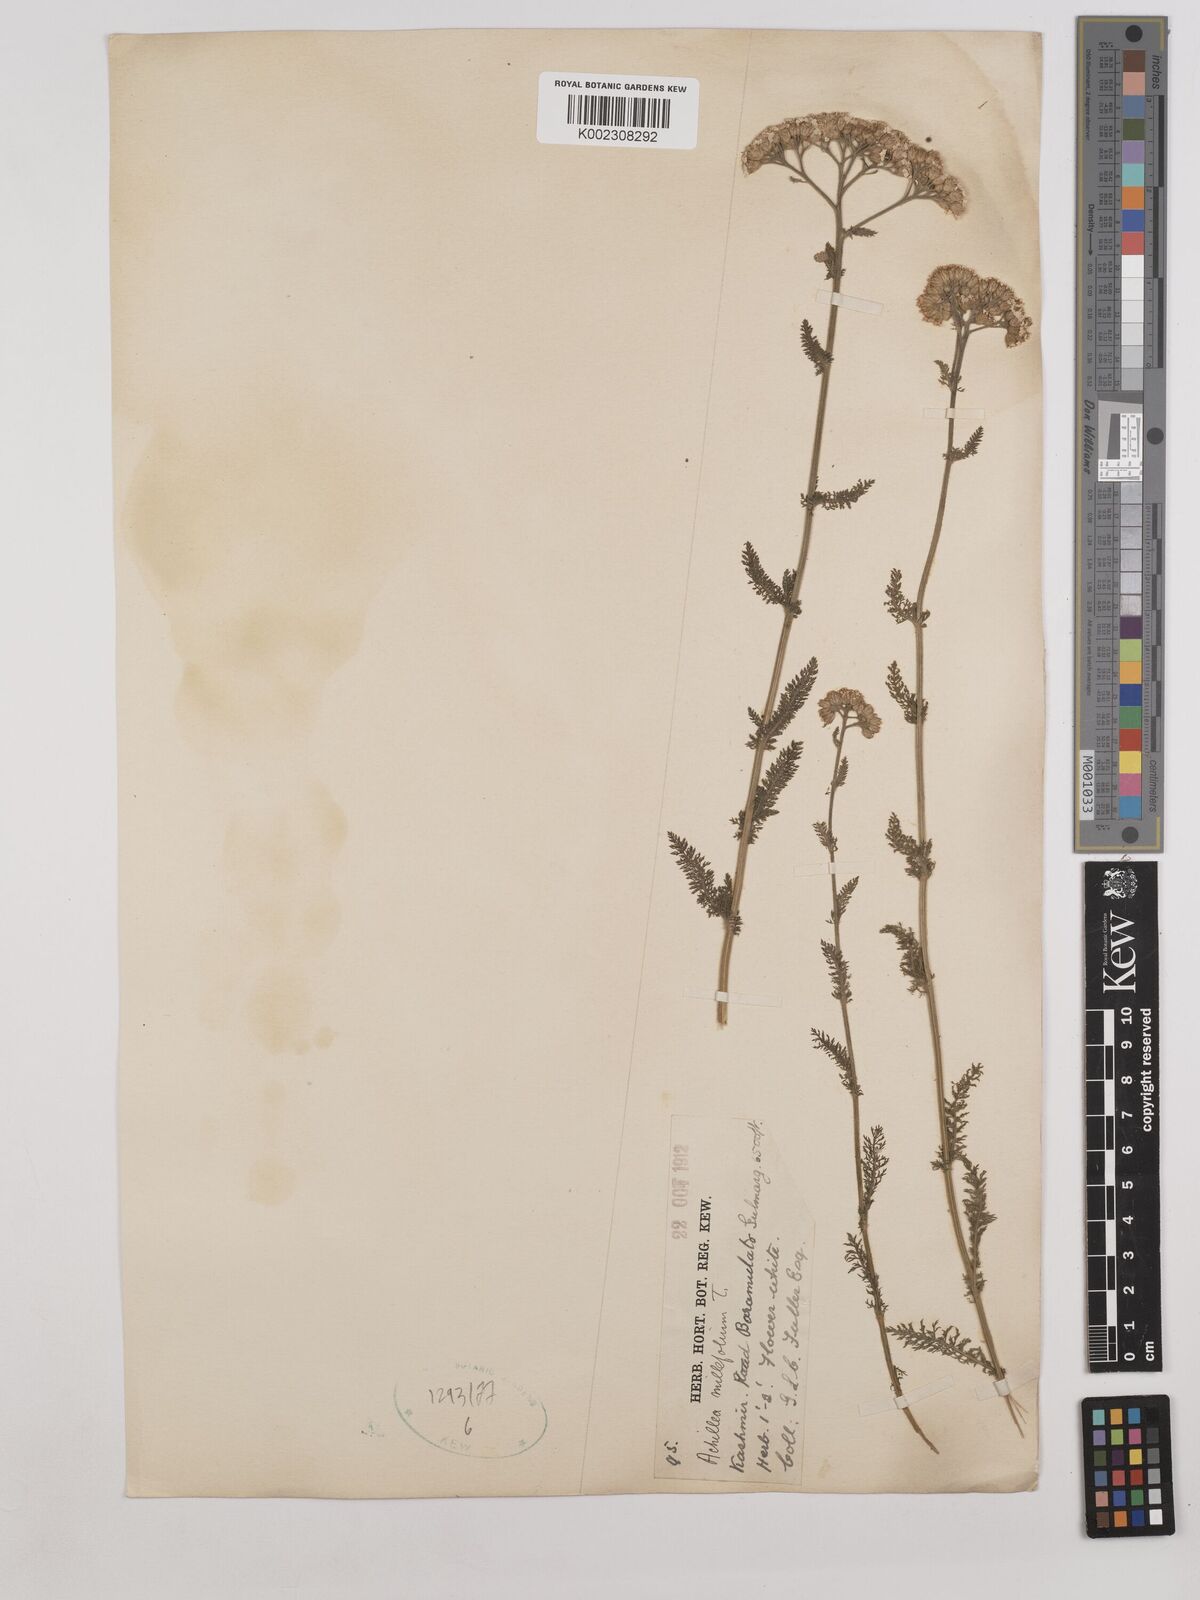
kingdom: Plantae
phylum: Tracheophyta
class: Magnoliopsida
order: Asterales
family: Asteraceae
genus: Achillea
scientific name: Achillea millefolium
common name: Yarrow
